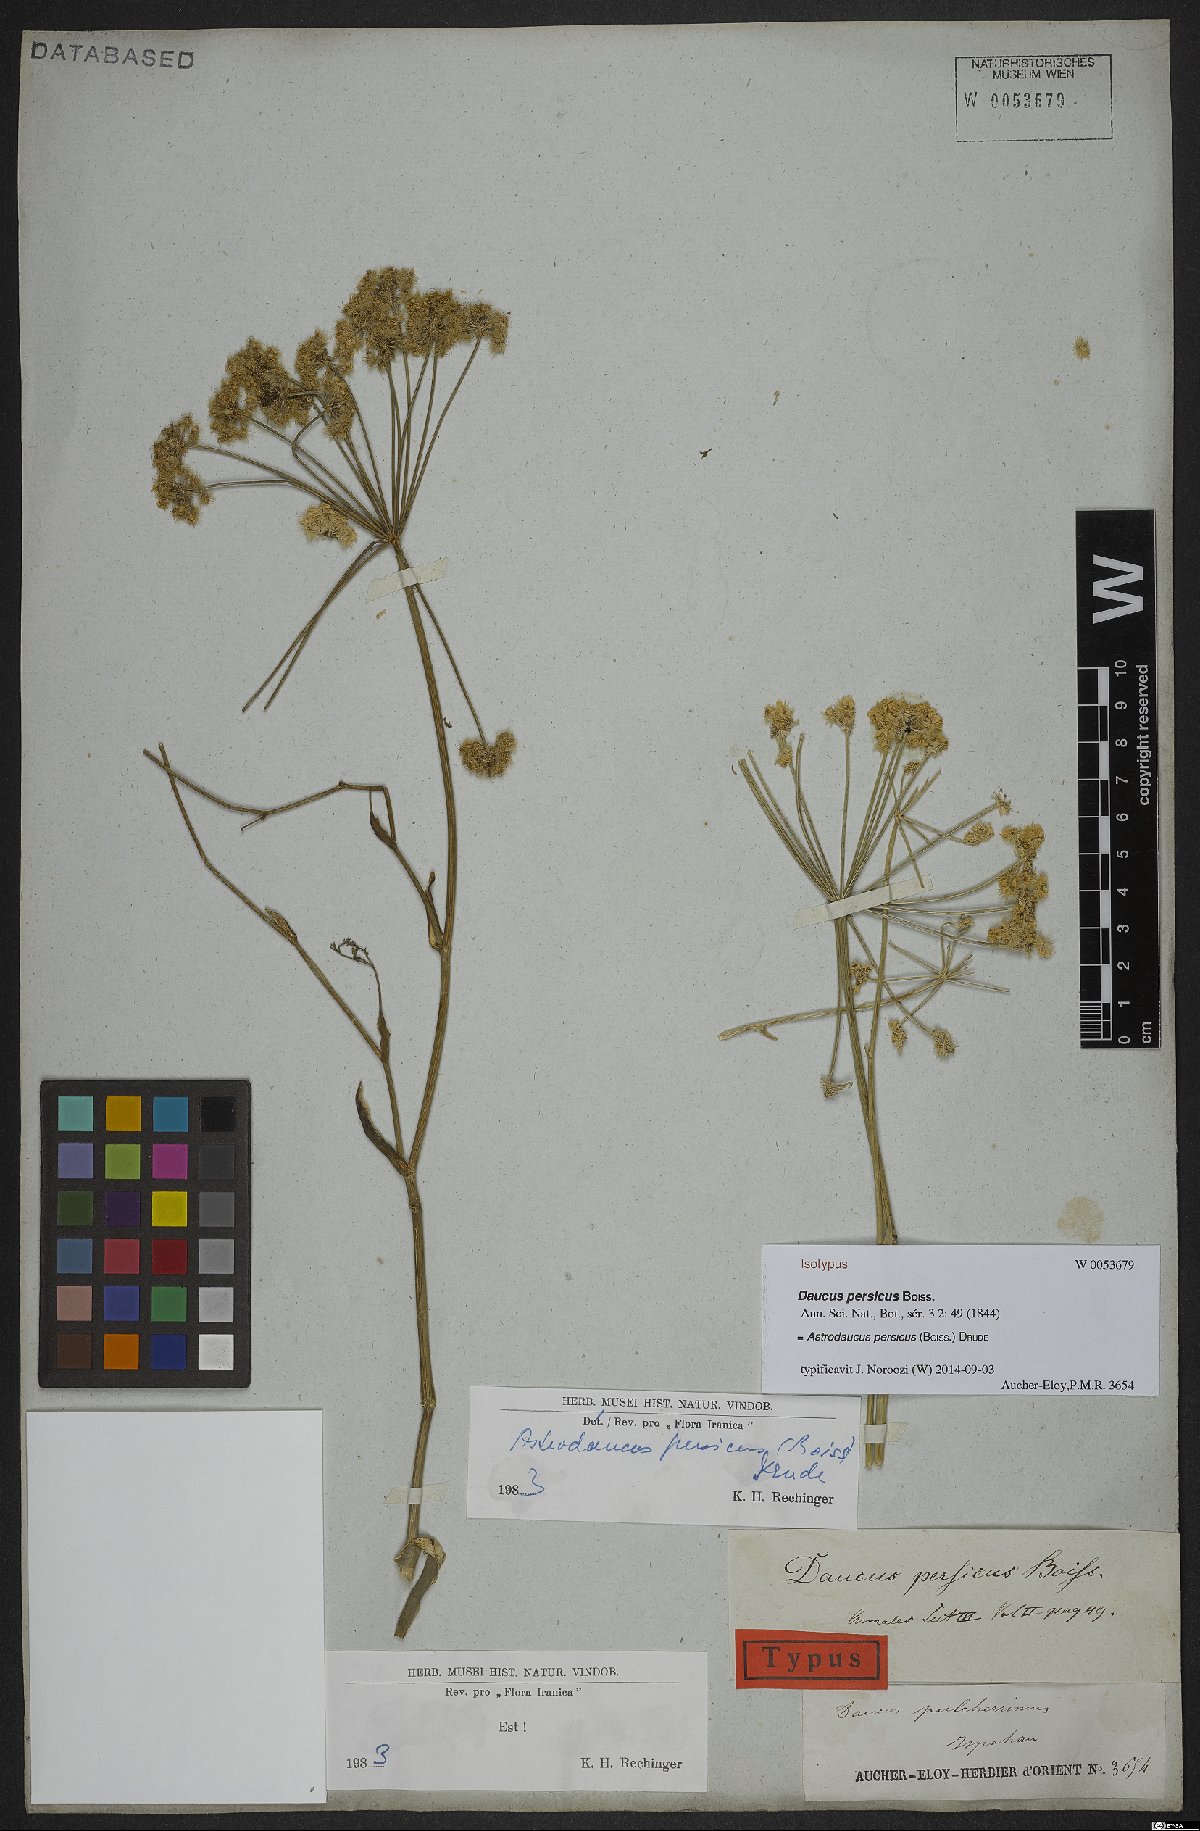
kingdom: Plantae
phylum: Tracheophyta
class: Magnoliopsida
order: Apiales
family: Apiaceae
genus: Astrodaucus
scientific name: Astrodaucus persicus
